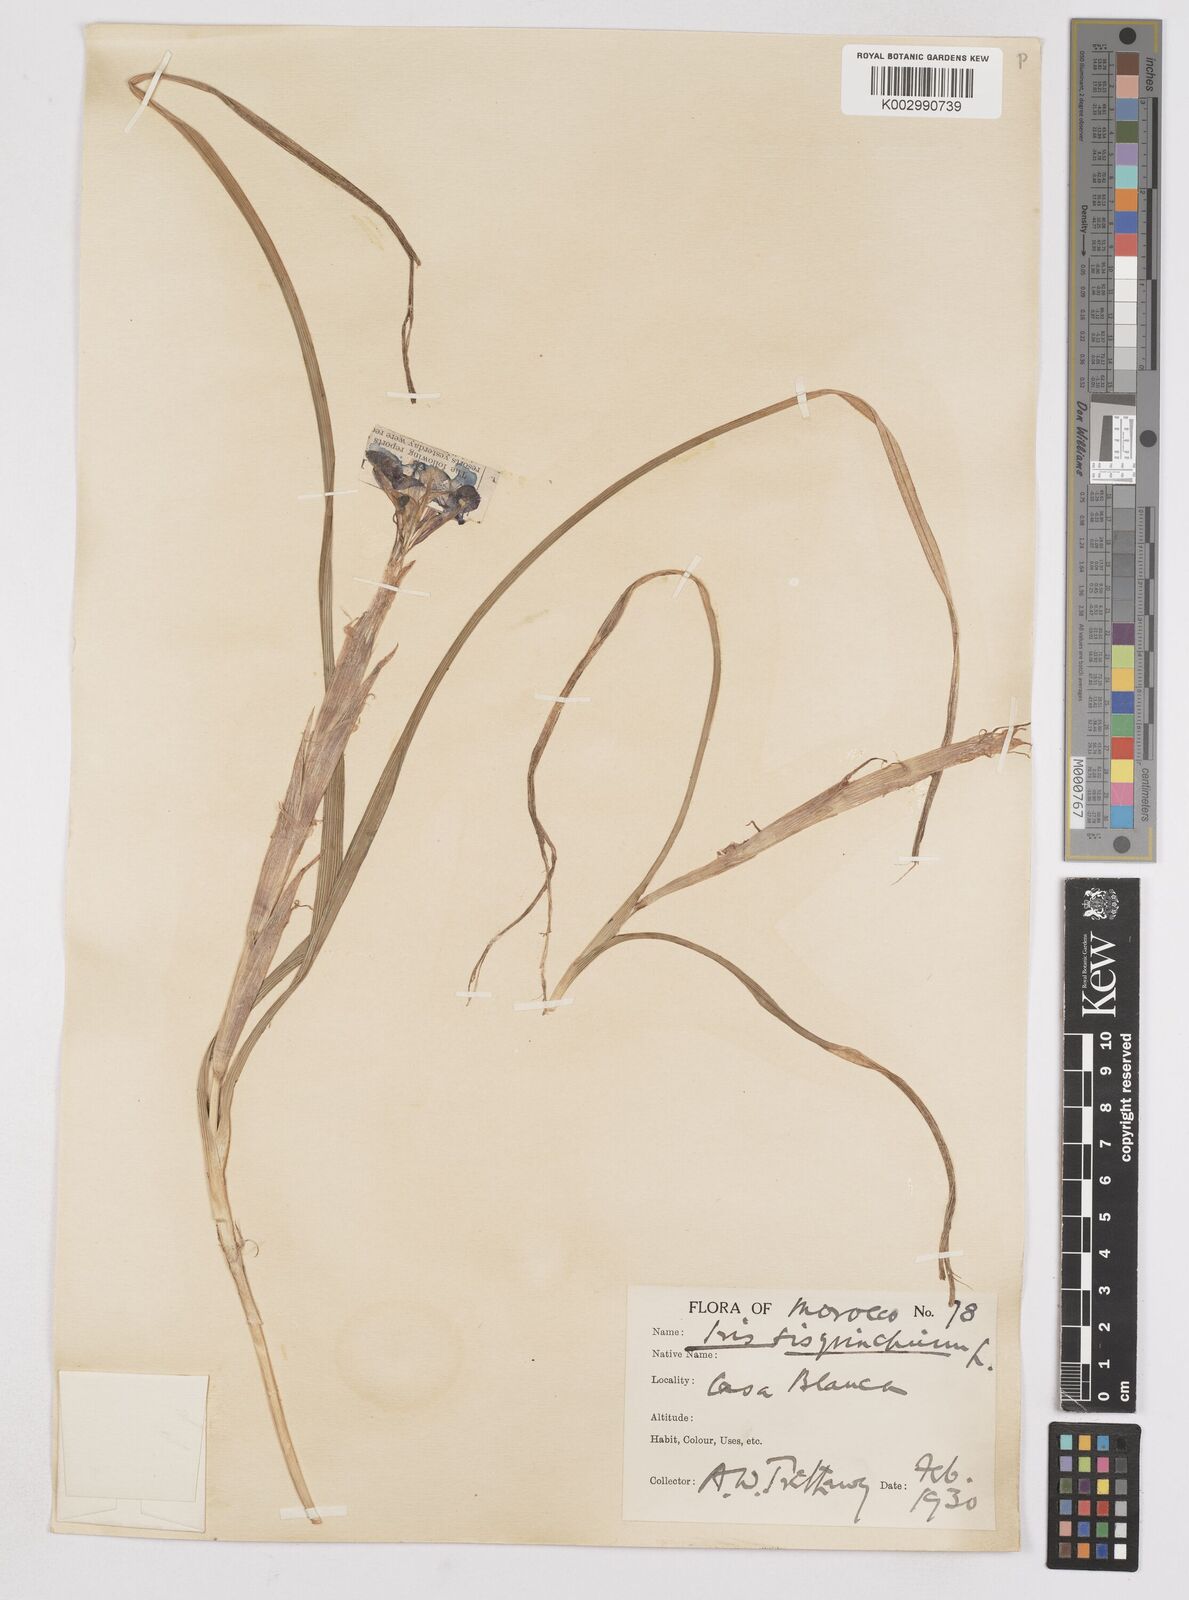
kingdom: Plantae
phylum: Tracheophyta
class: Liliopsida
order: Asparagales
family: Iridaceae
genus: Moraea
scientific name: Moraea sisyrinchium
